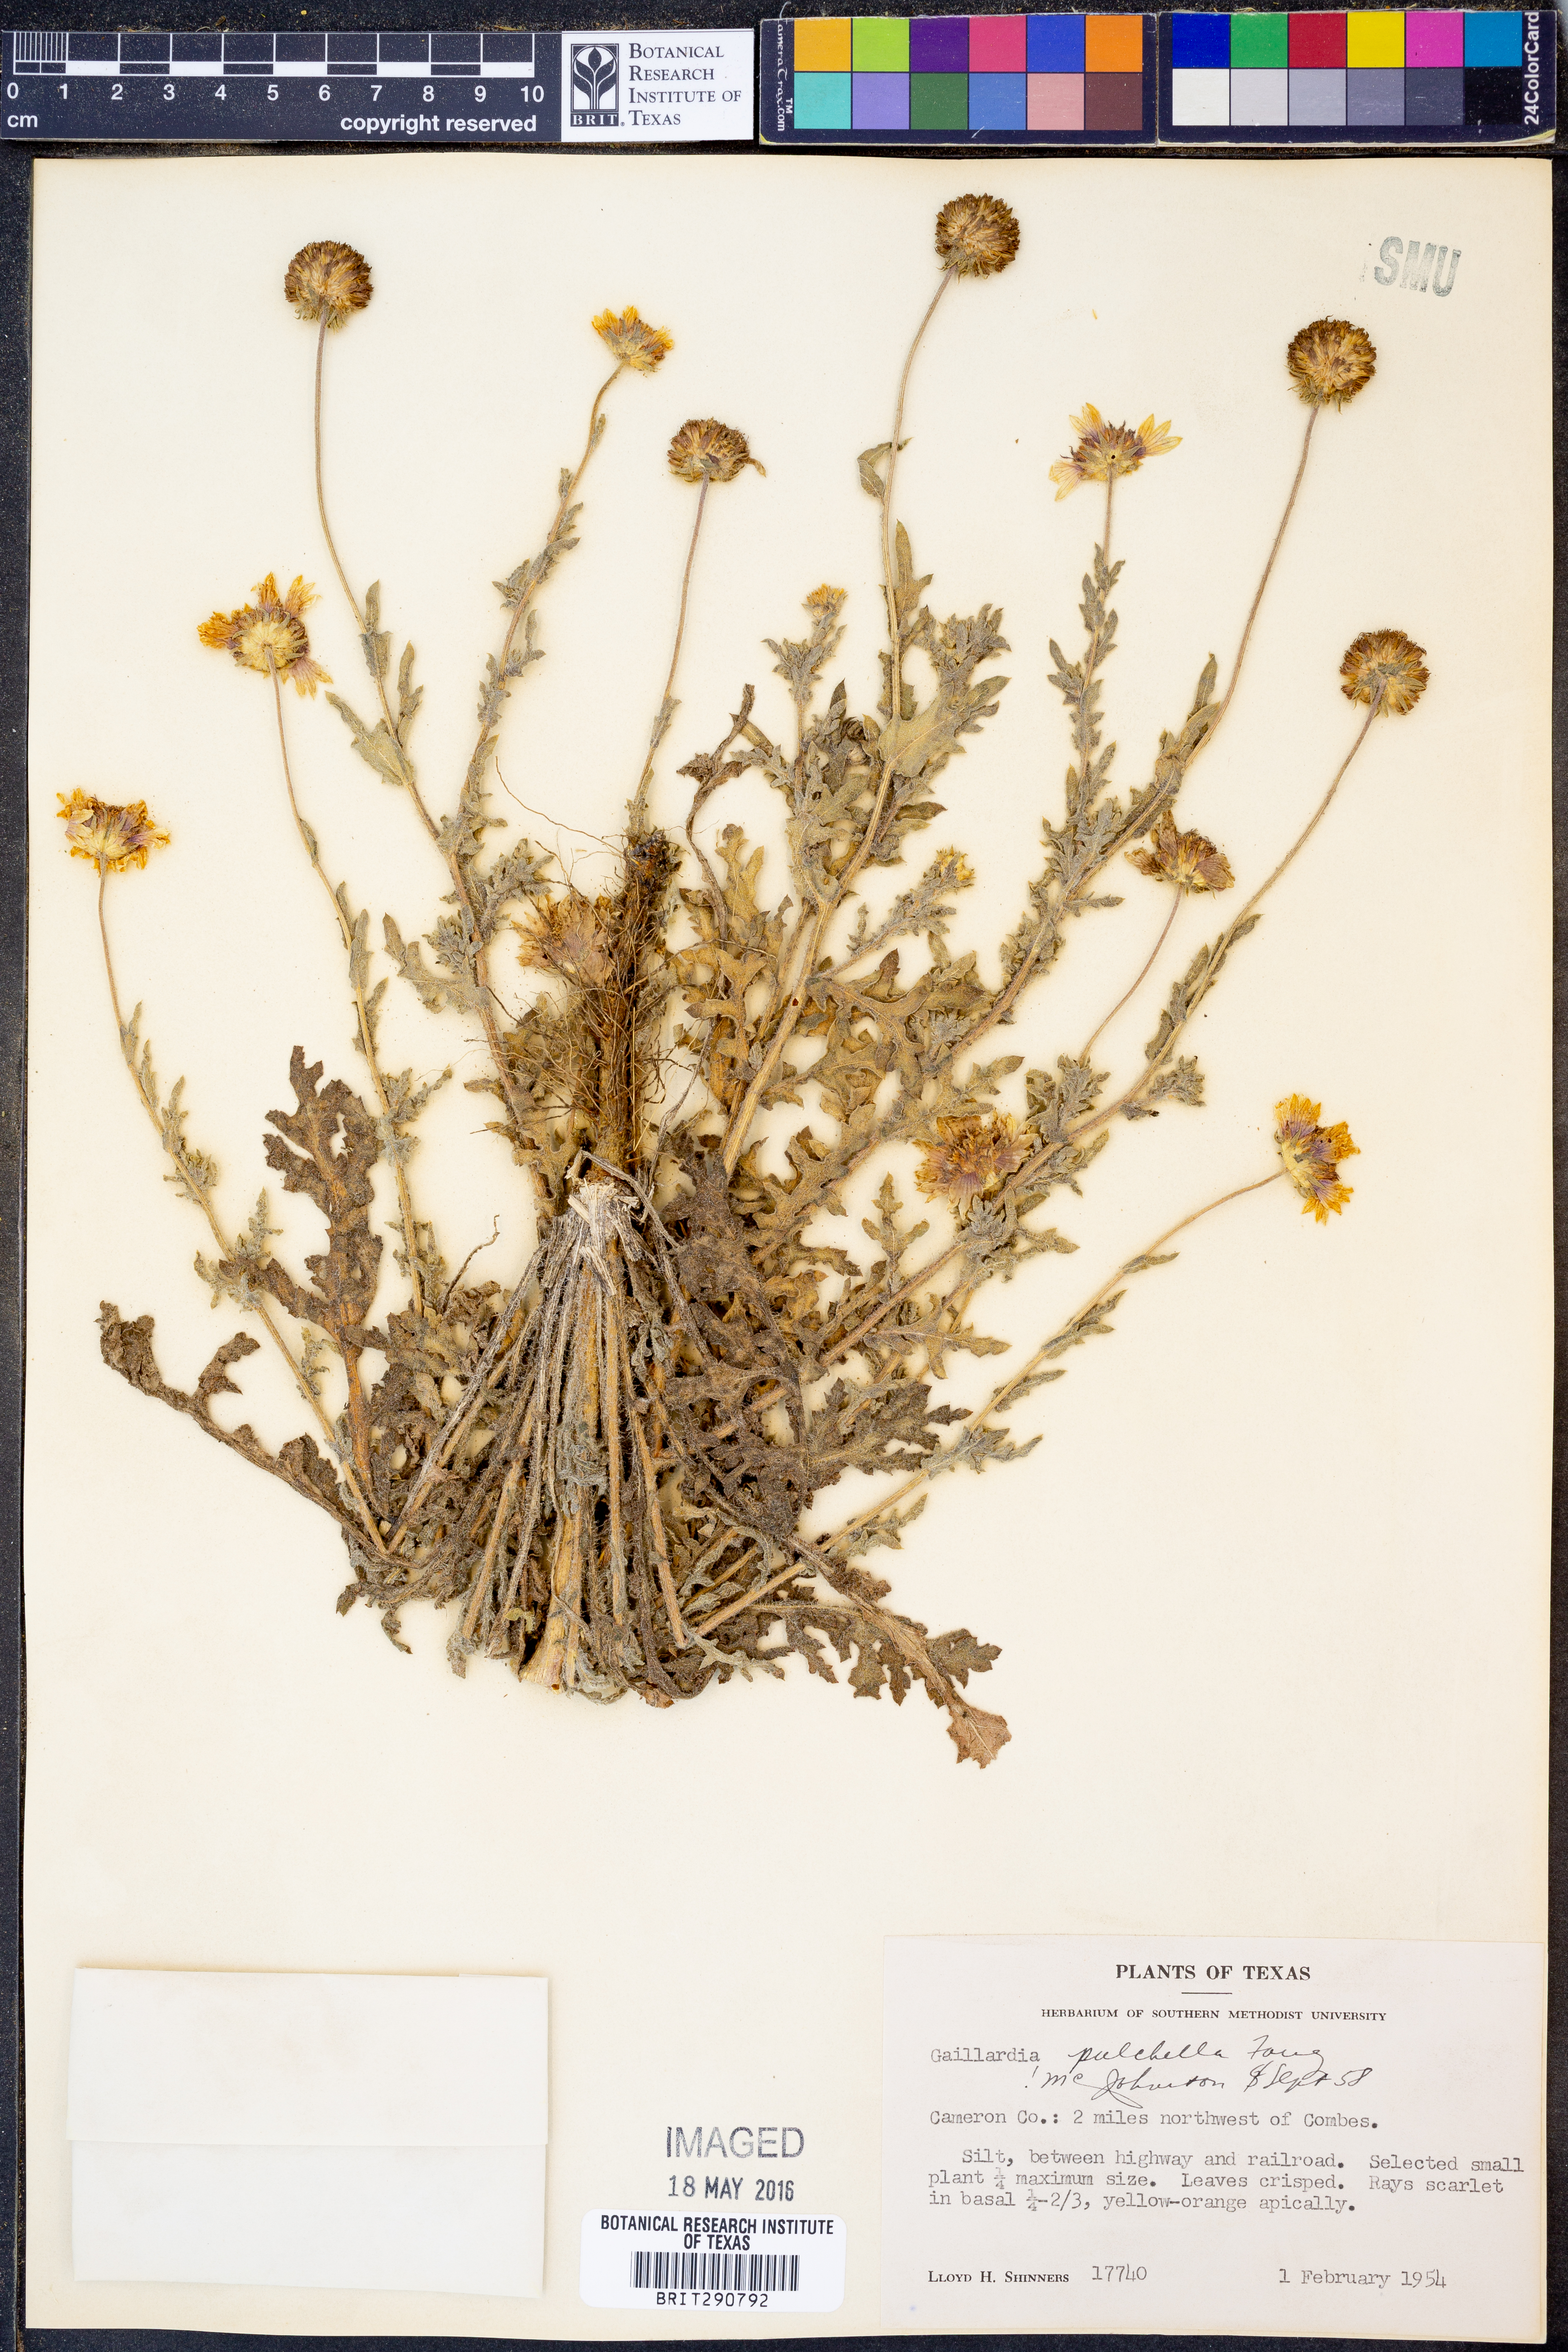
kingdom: Plantae
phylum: Tracheophyta
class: Magnoliopsida
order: Asterales
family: Asteraceae
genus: Gaillardia
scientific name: Gaillardia pulchella
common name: Firewheel
